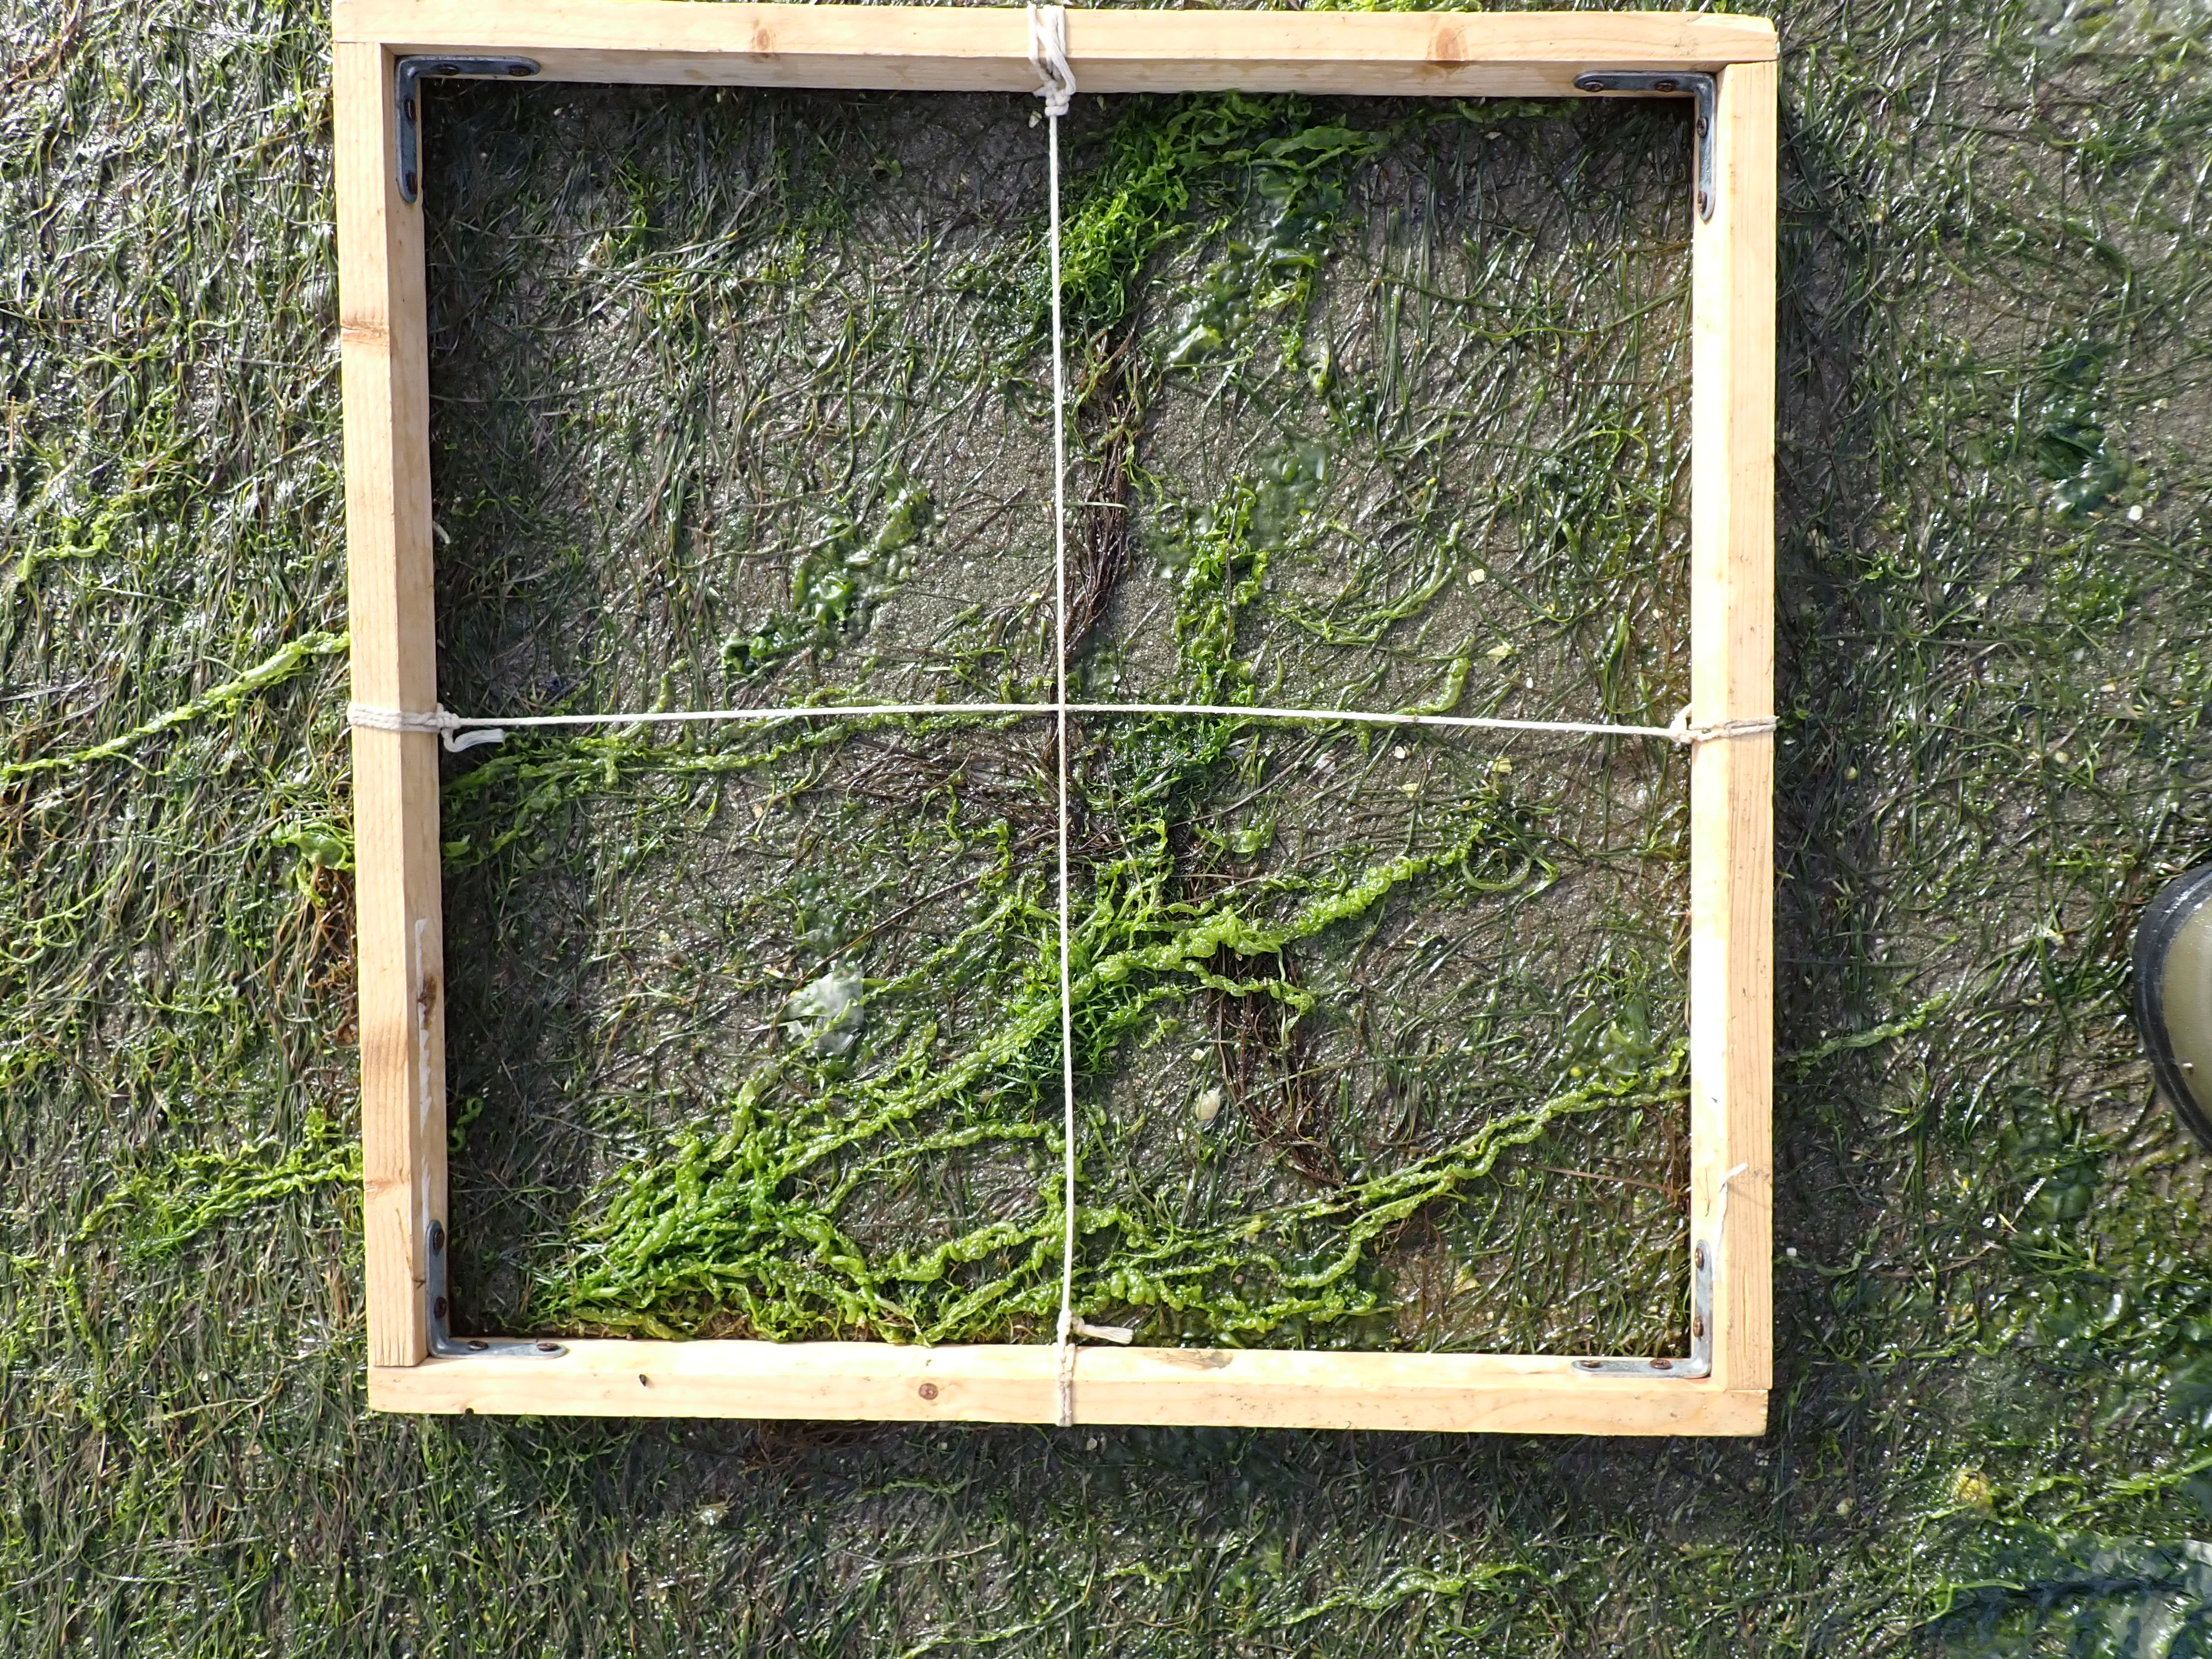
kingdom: Plantae
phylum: Chlorophyta
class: Ulvophyceae
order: Ulvales
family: Ulvaceae
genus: Ulva
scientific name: Ulva
